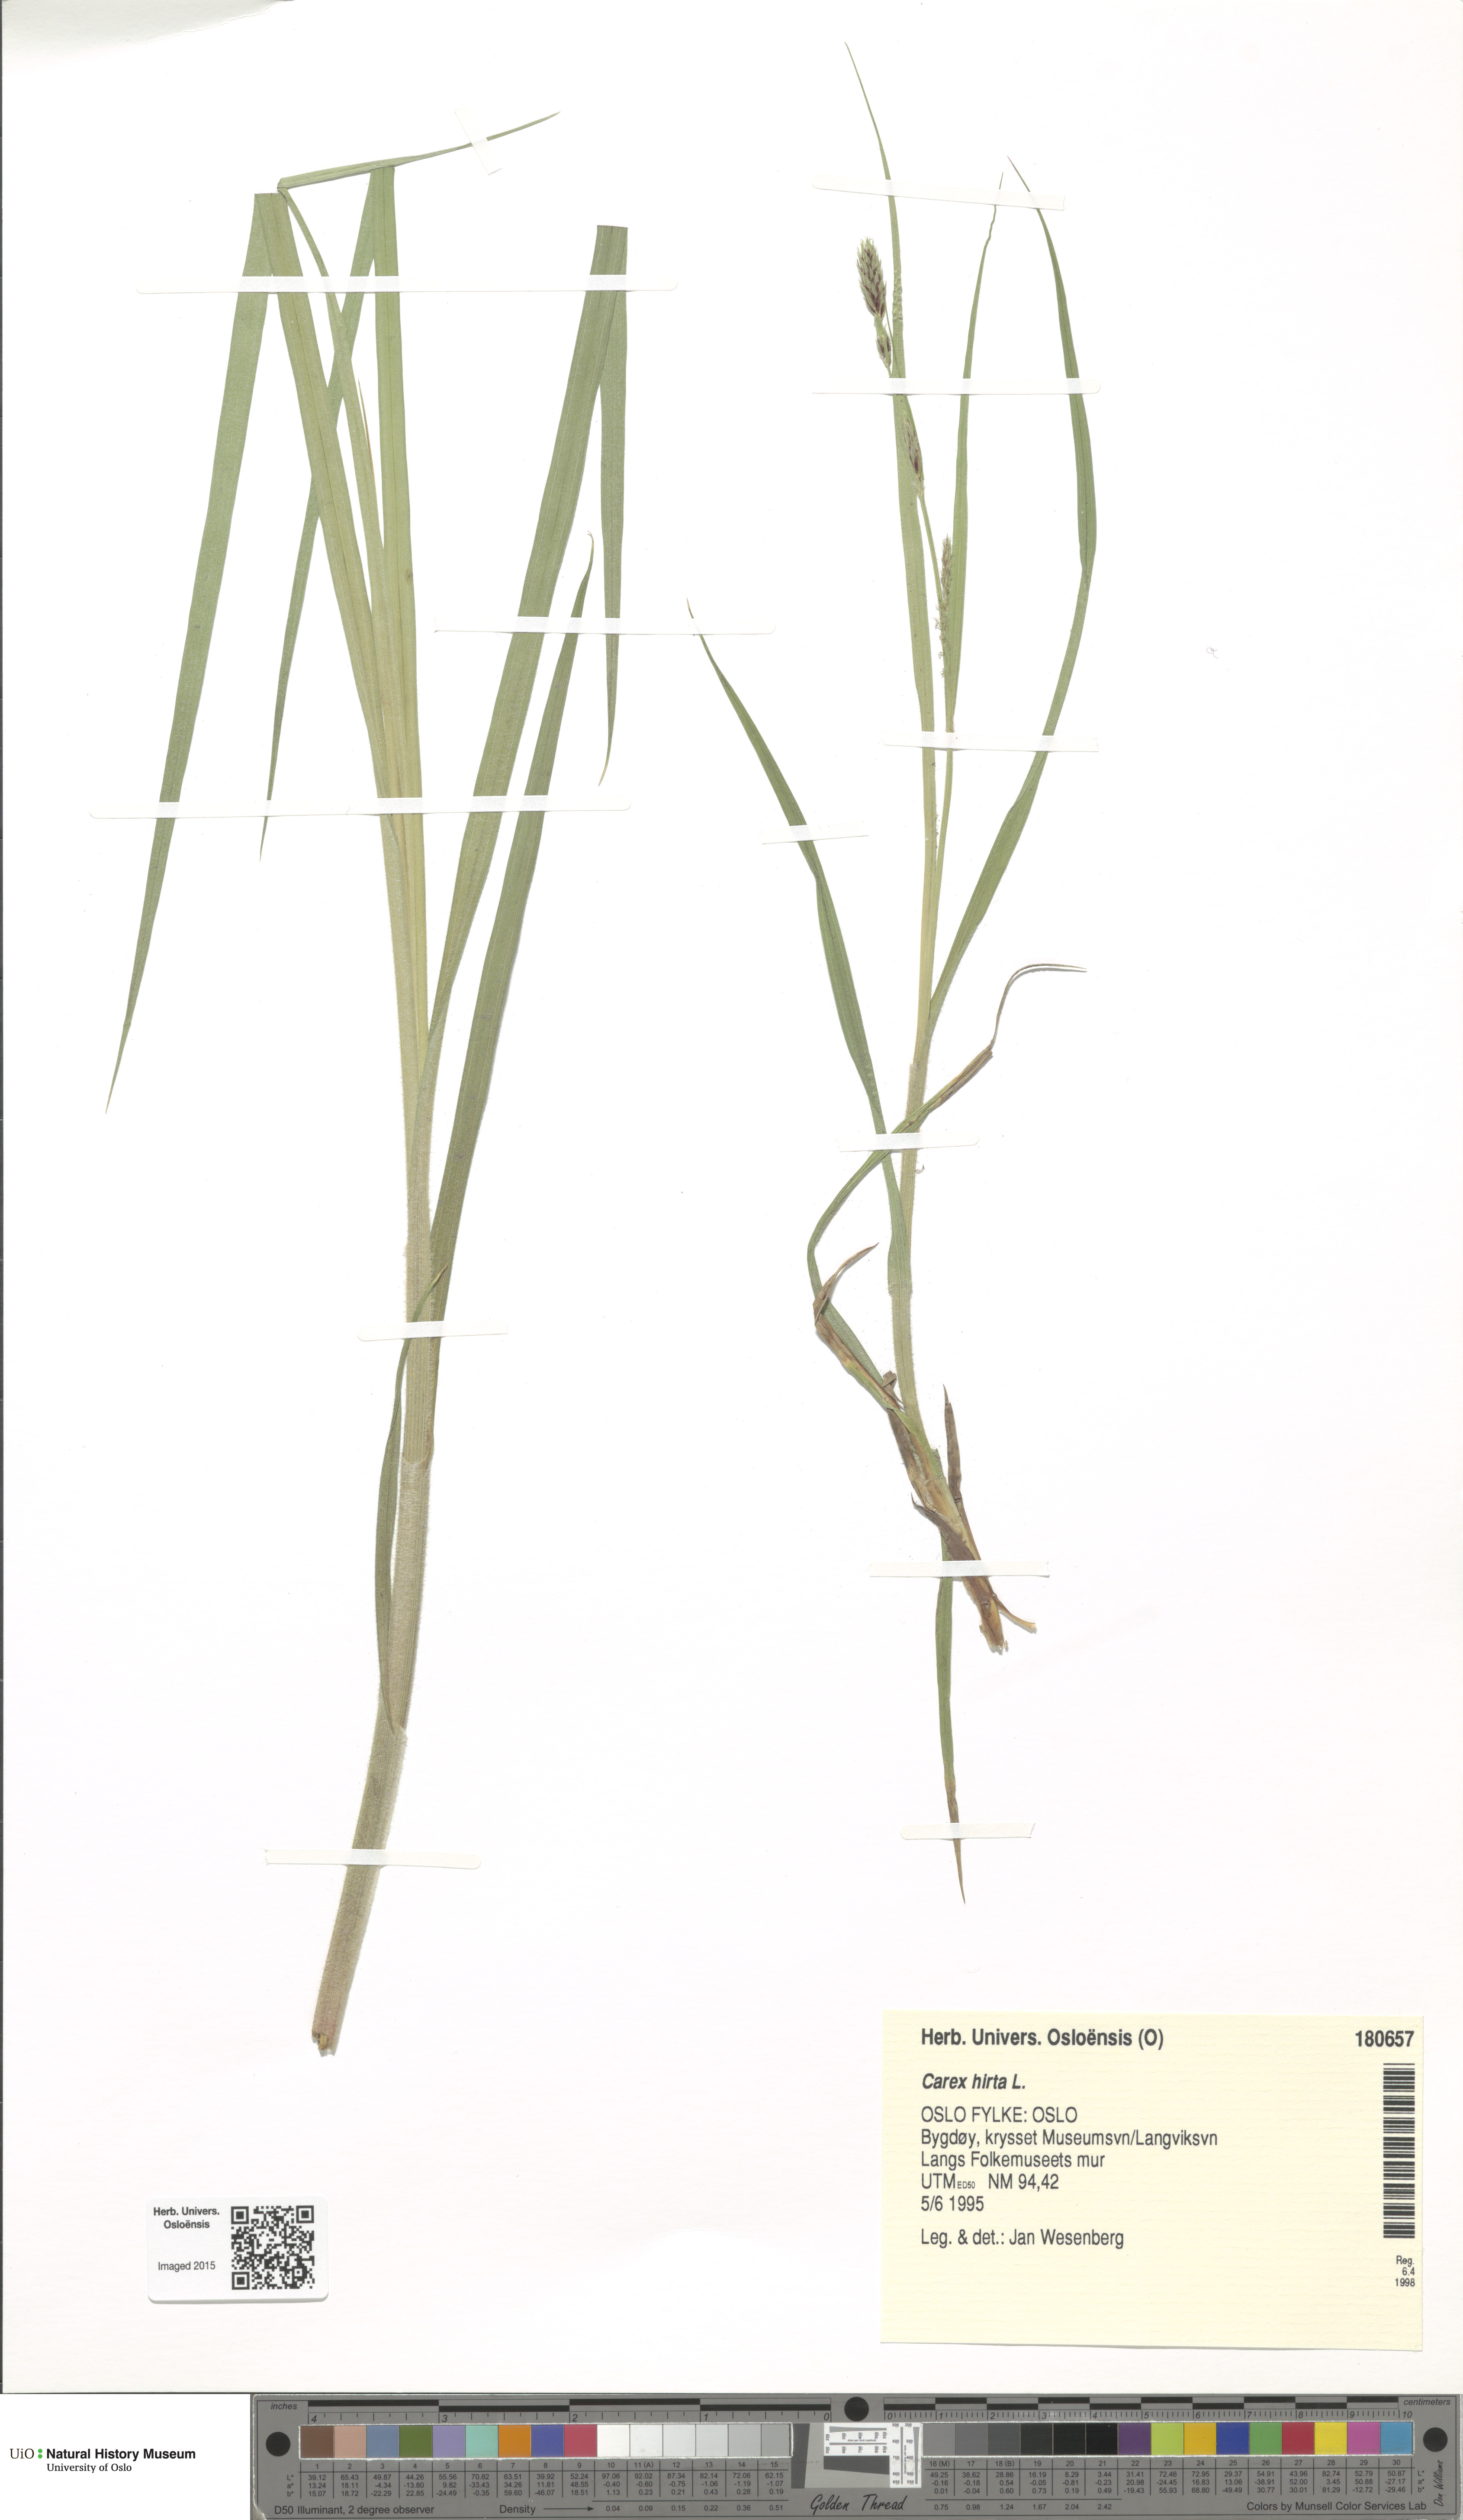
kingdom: Plantae
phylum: Tracheophyta
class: Liliopsida
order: Poales
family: Cyperaceae
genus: Carex
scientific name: Carex hirta
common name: Hairy sedge
